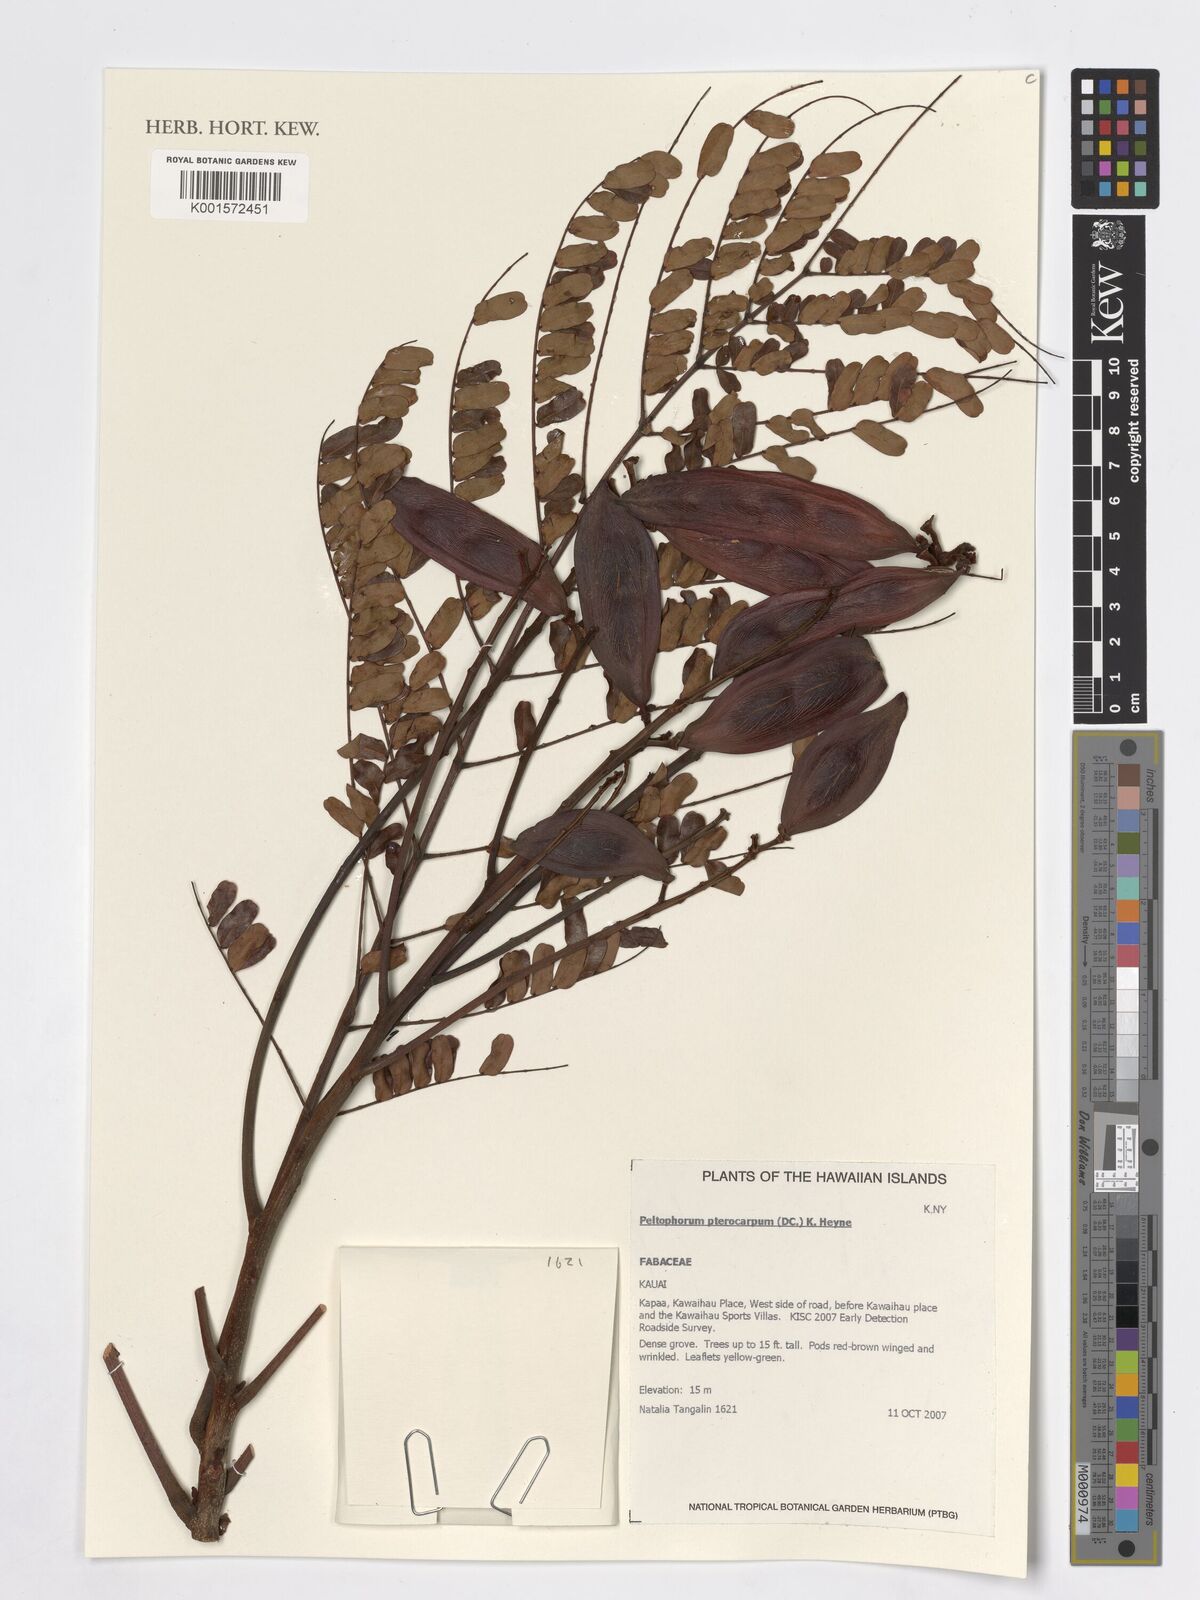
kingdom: Plantae
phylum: Tracheophyta
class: Magnoliopsida
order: Fabales
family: Fabaceae
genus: Peltophorum
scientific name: Peltophorum pterocarpum
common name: Yellow flame
